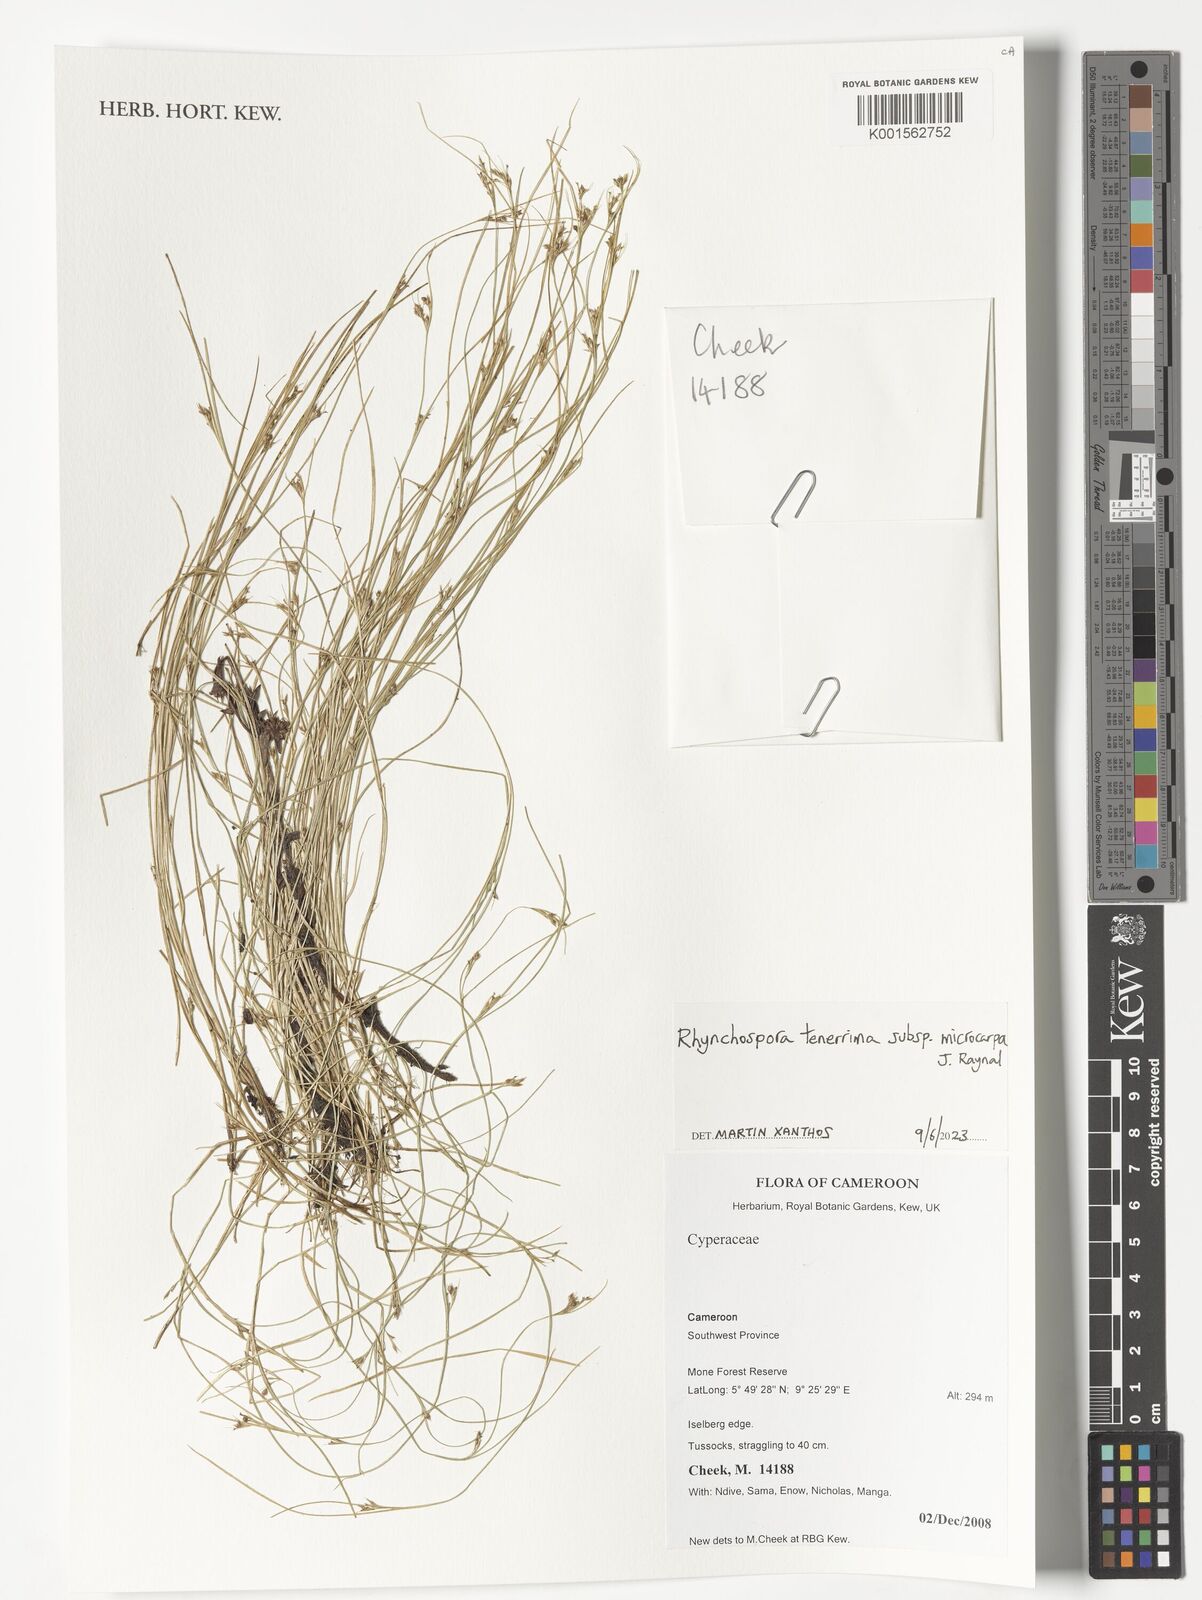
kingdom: Plantae
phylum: Tracheophyta
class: Liliopsida
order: Poales
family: Cyperaceae
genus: Rhynchospora
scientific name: Rhynchospora tenerrima
